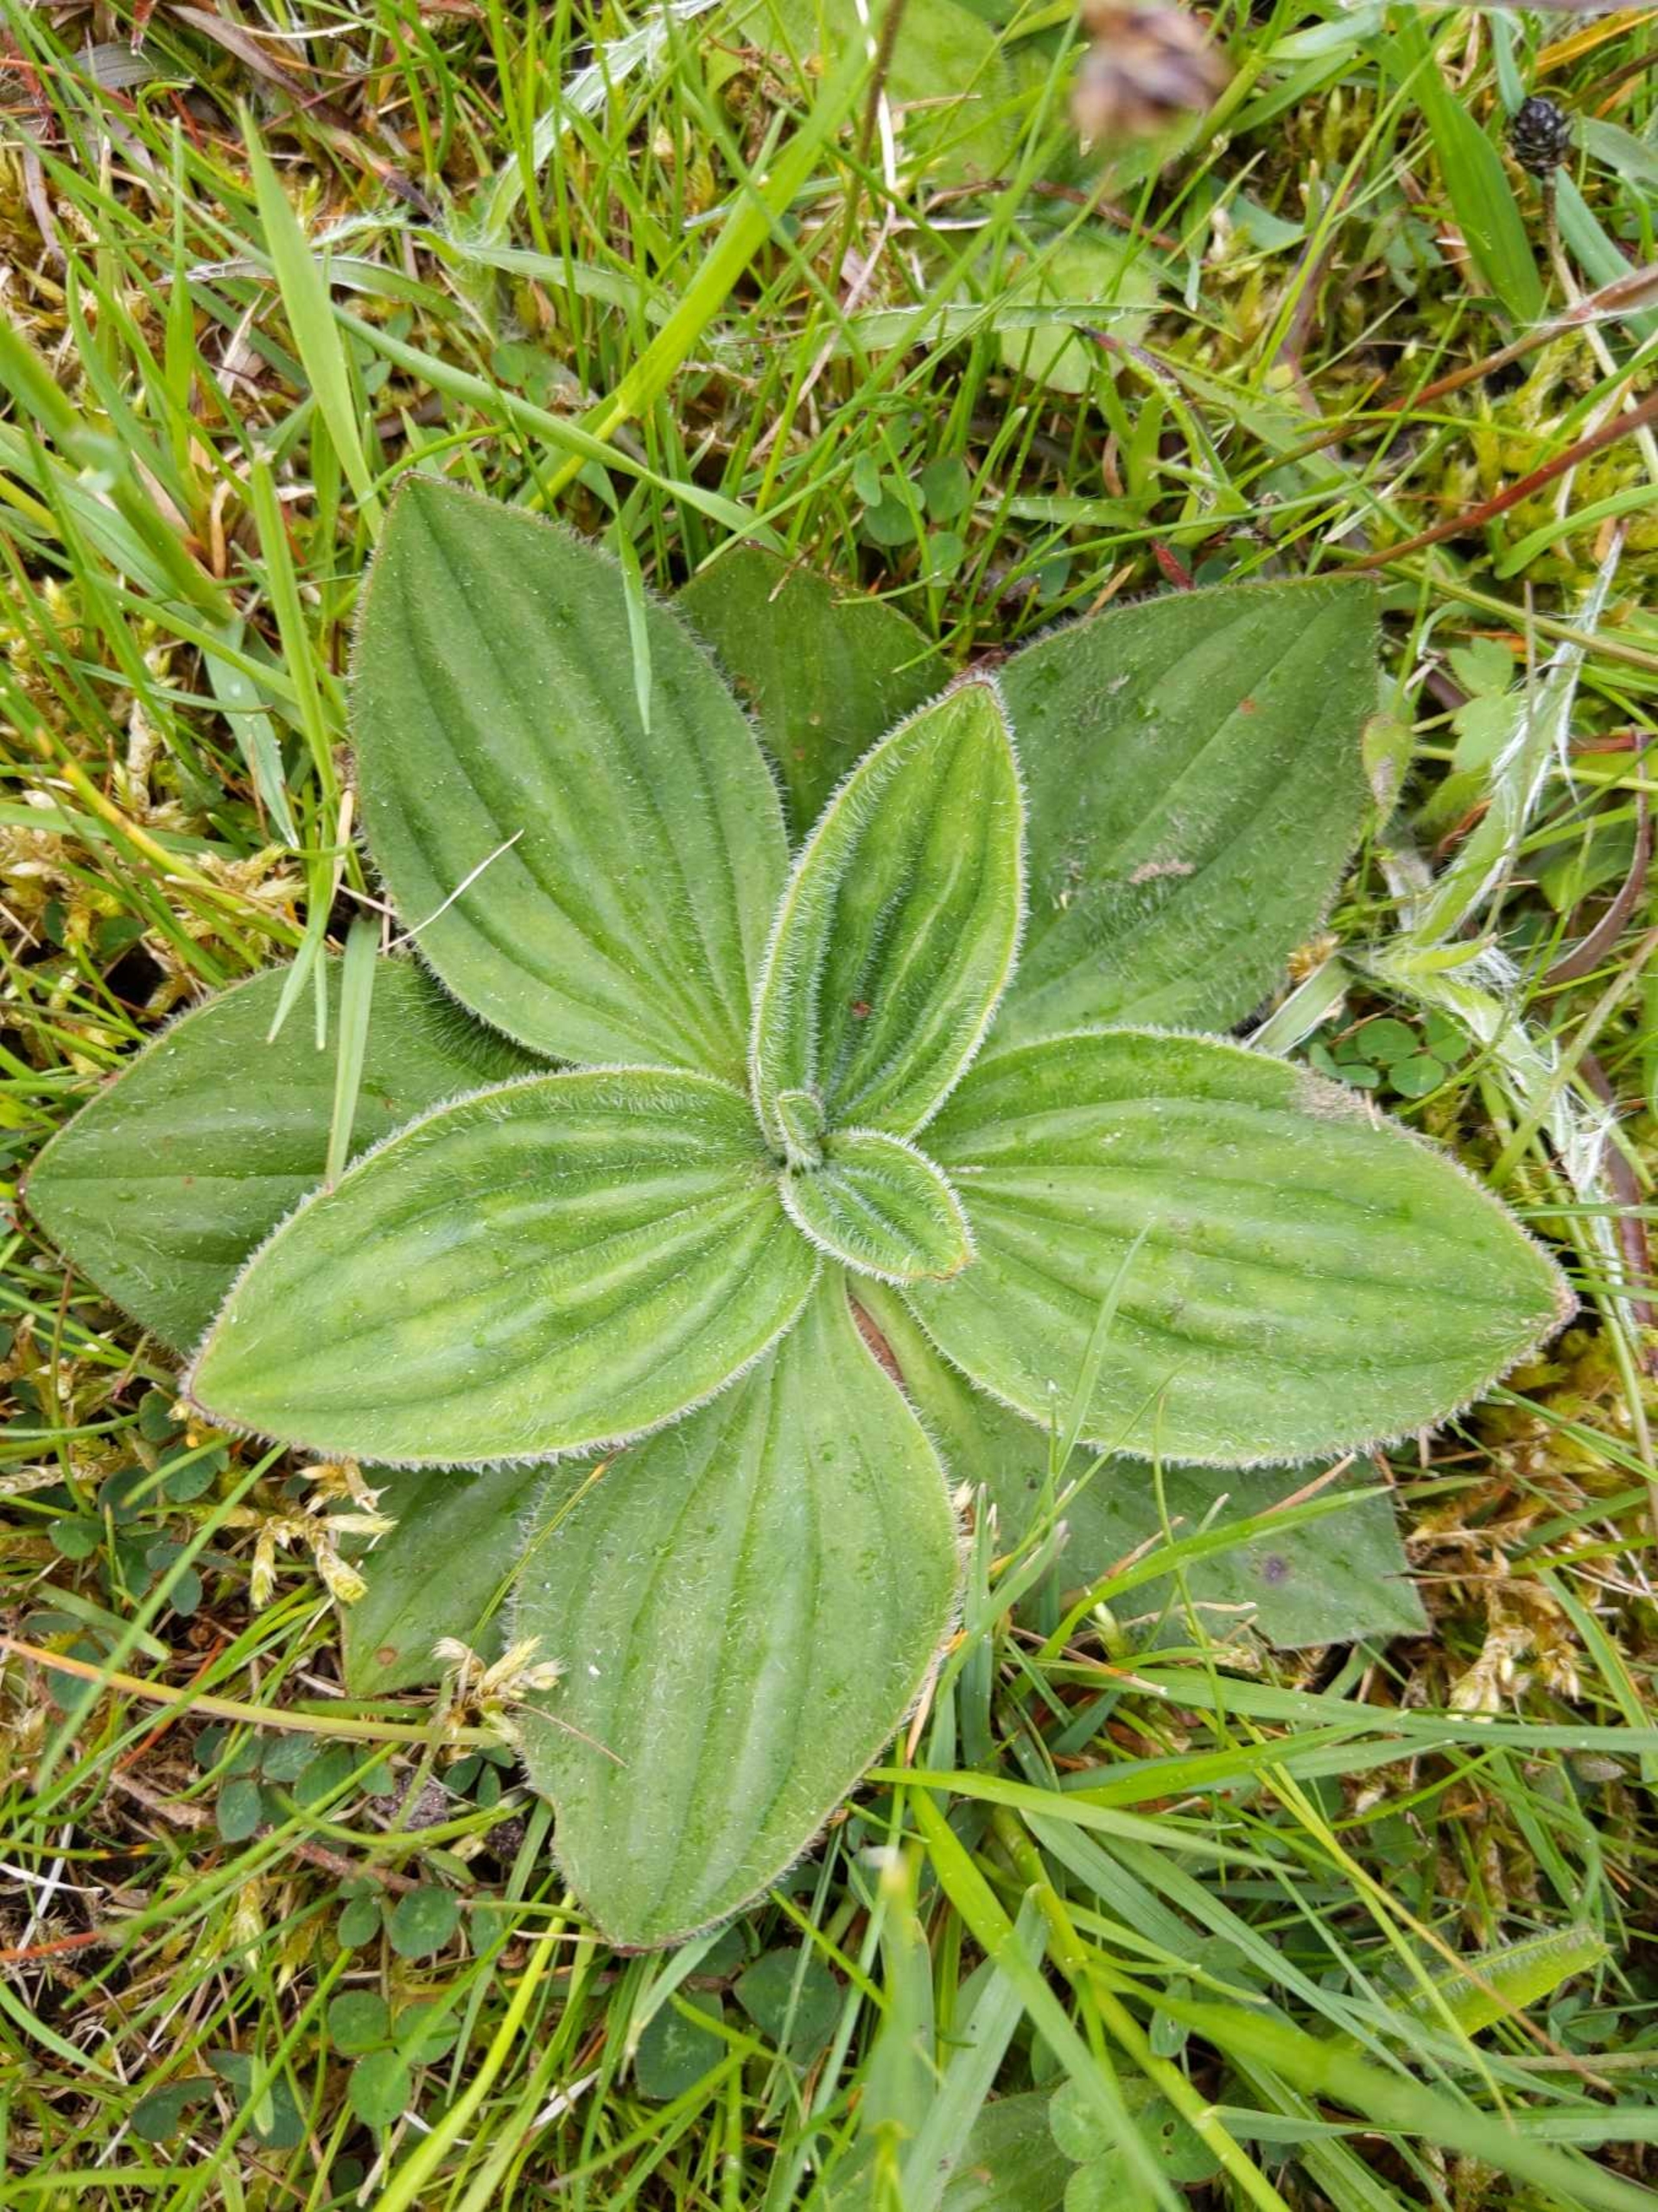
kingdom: Plantae
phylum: Tracheophyta
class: Magnoliopsida
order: Lamiales
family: Plantaginaceae
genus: Plantago
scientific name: Plantago media
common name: Dunet vejbred
